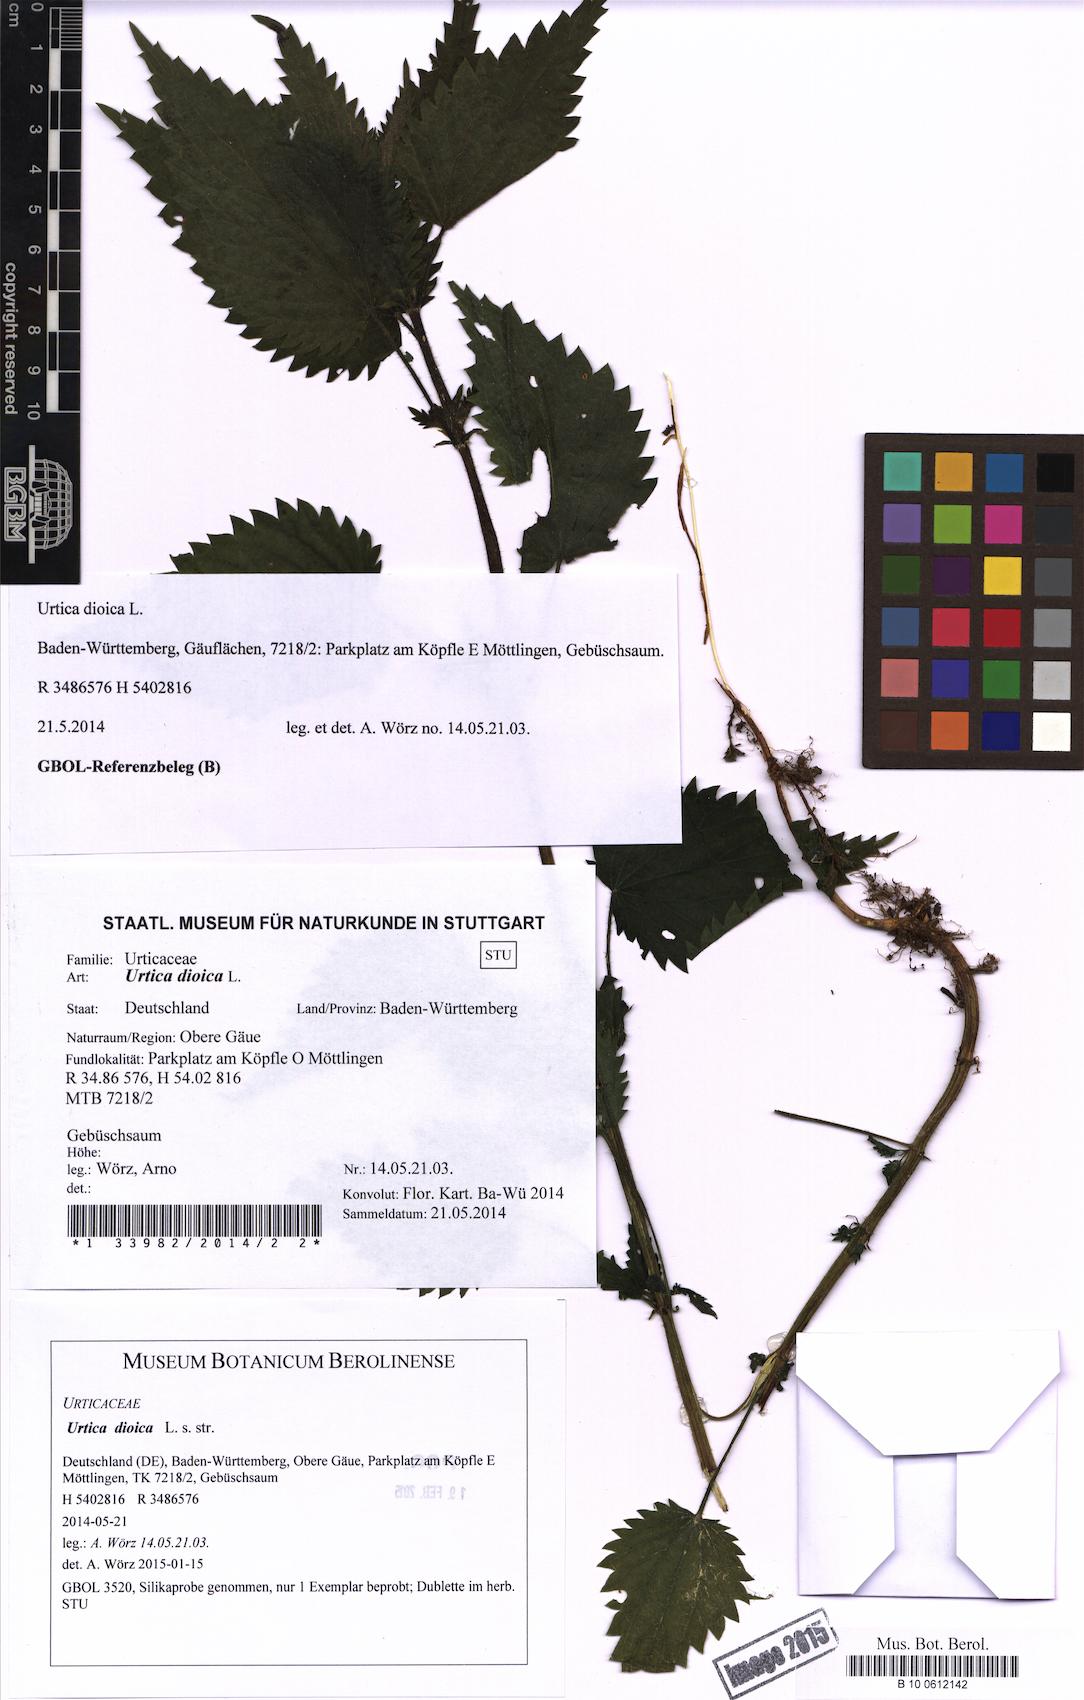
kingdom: Plantae
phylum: Tracheophyta
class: Magnoliopsida
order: Rosales
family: Urticaceae
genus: Urtica
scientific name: Urtica dioica
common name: Common nettle
